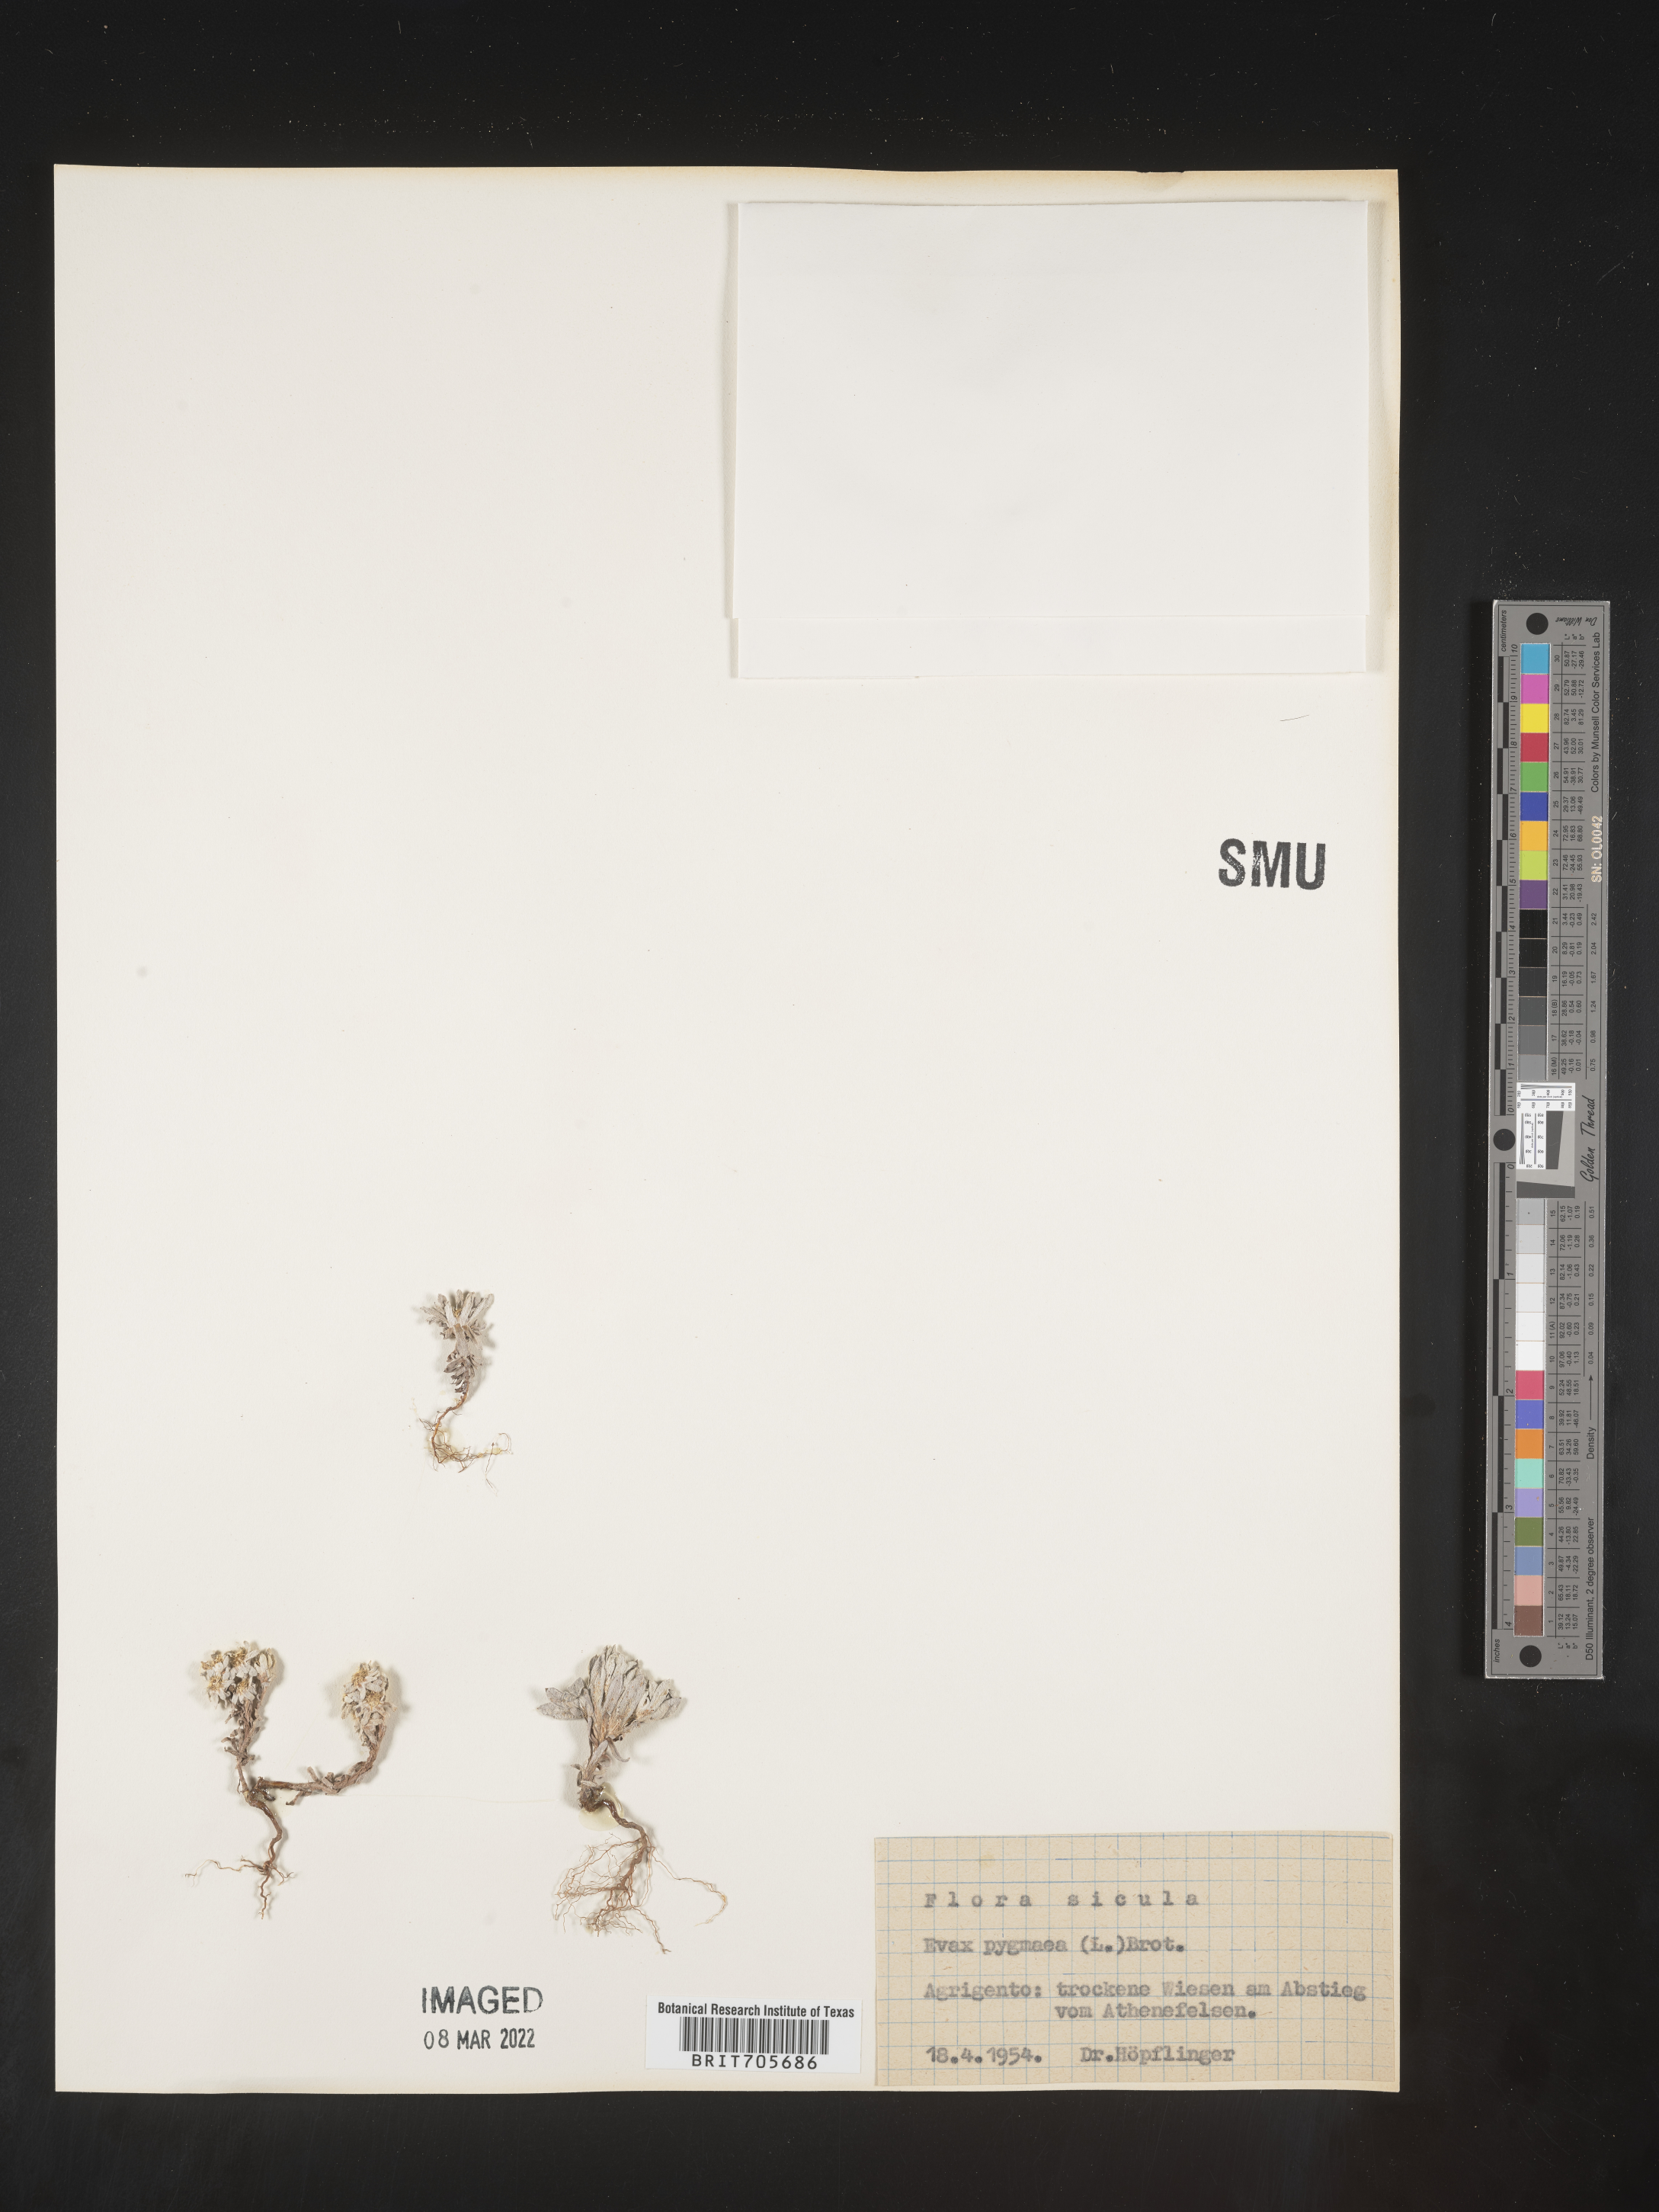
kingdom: Plantae
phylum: Tracheophyta
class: Magnoliopsida
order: Asterales
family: Asteraceae
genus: Filago
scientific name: Filago
